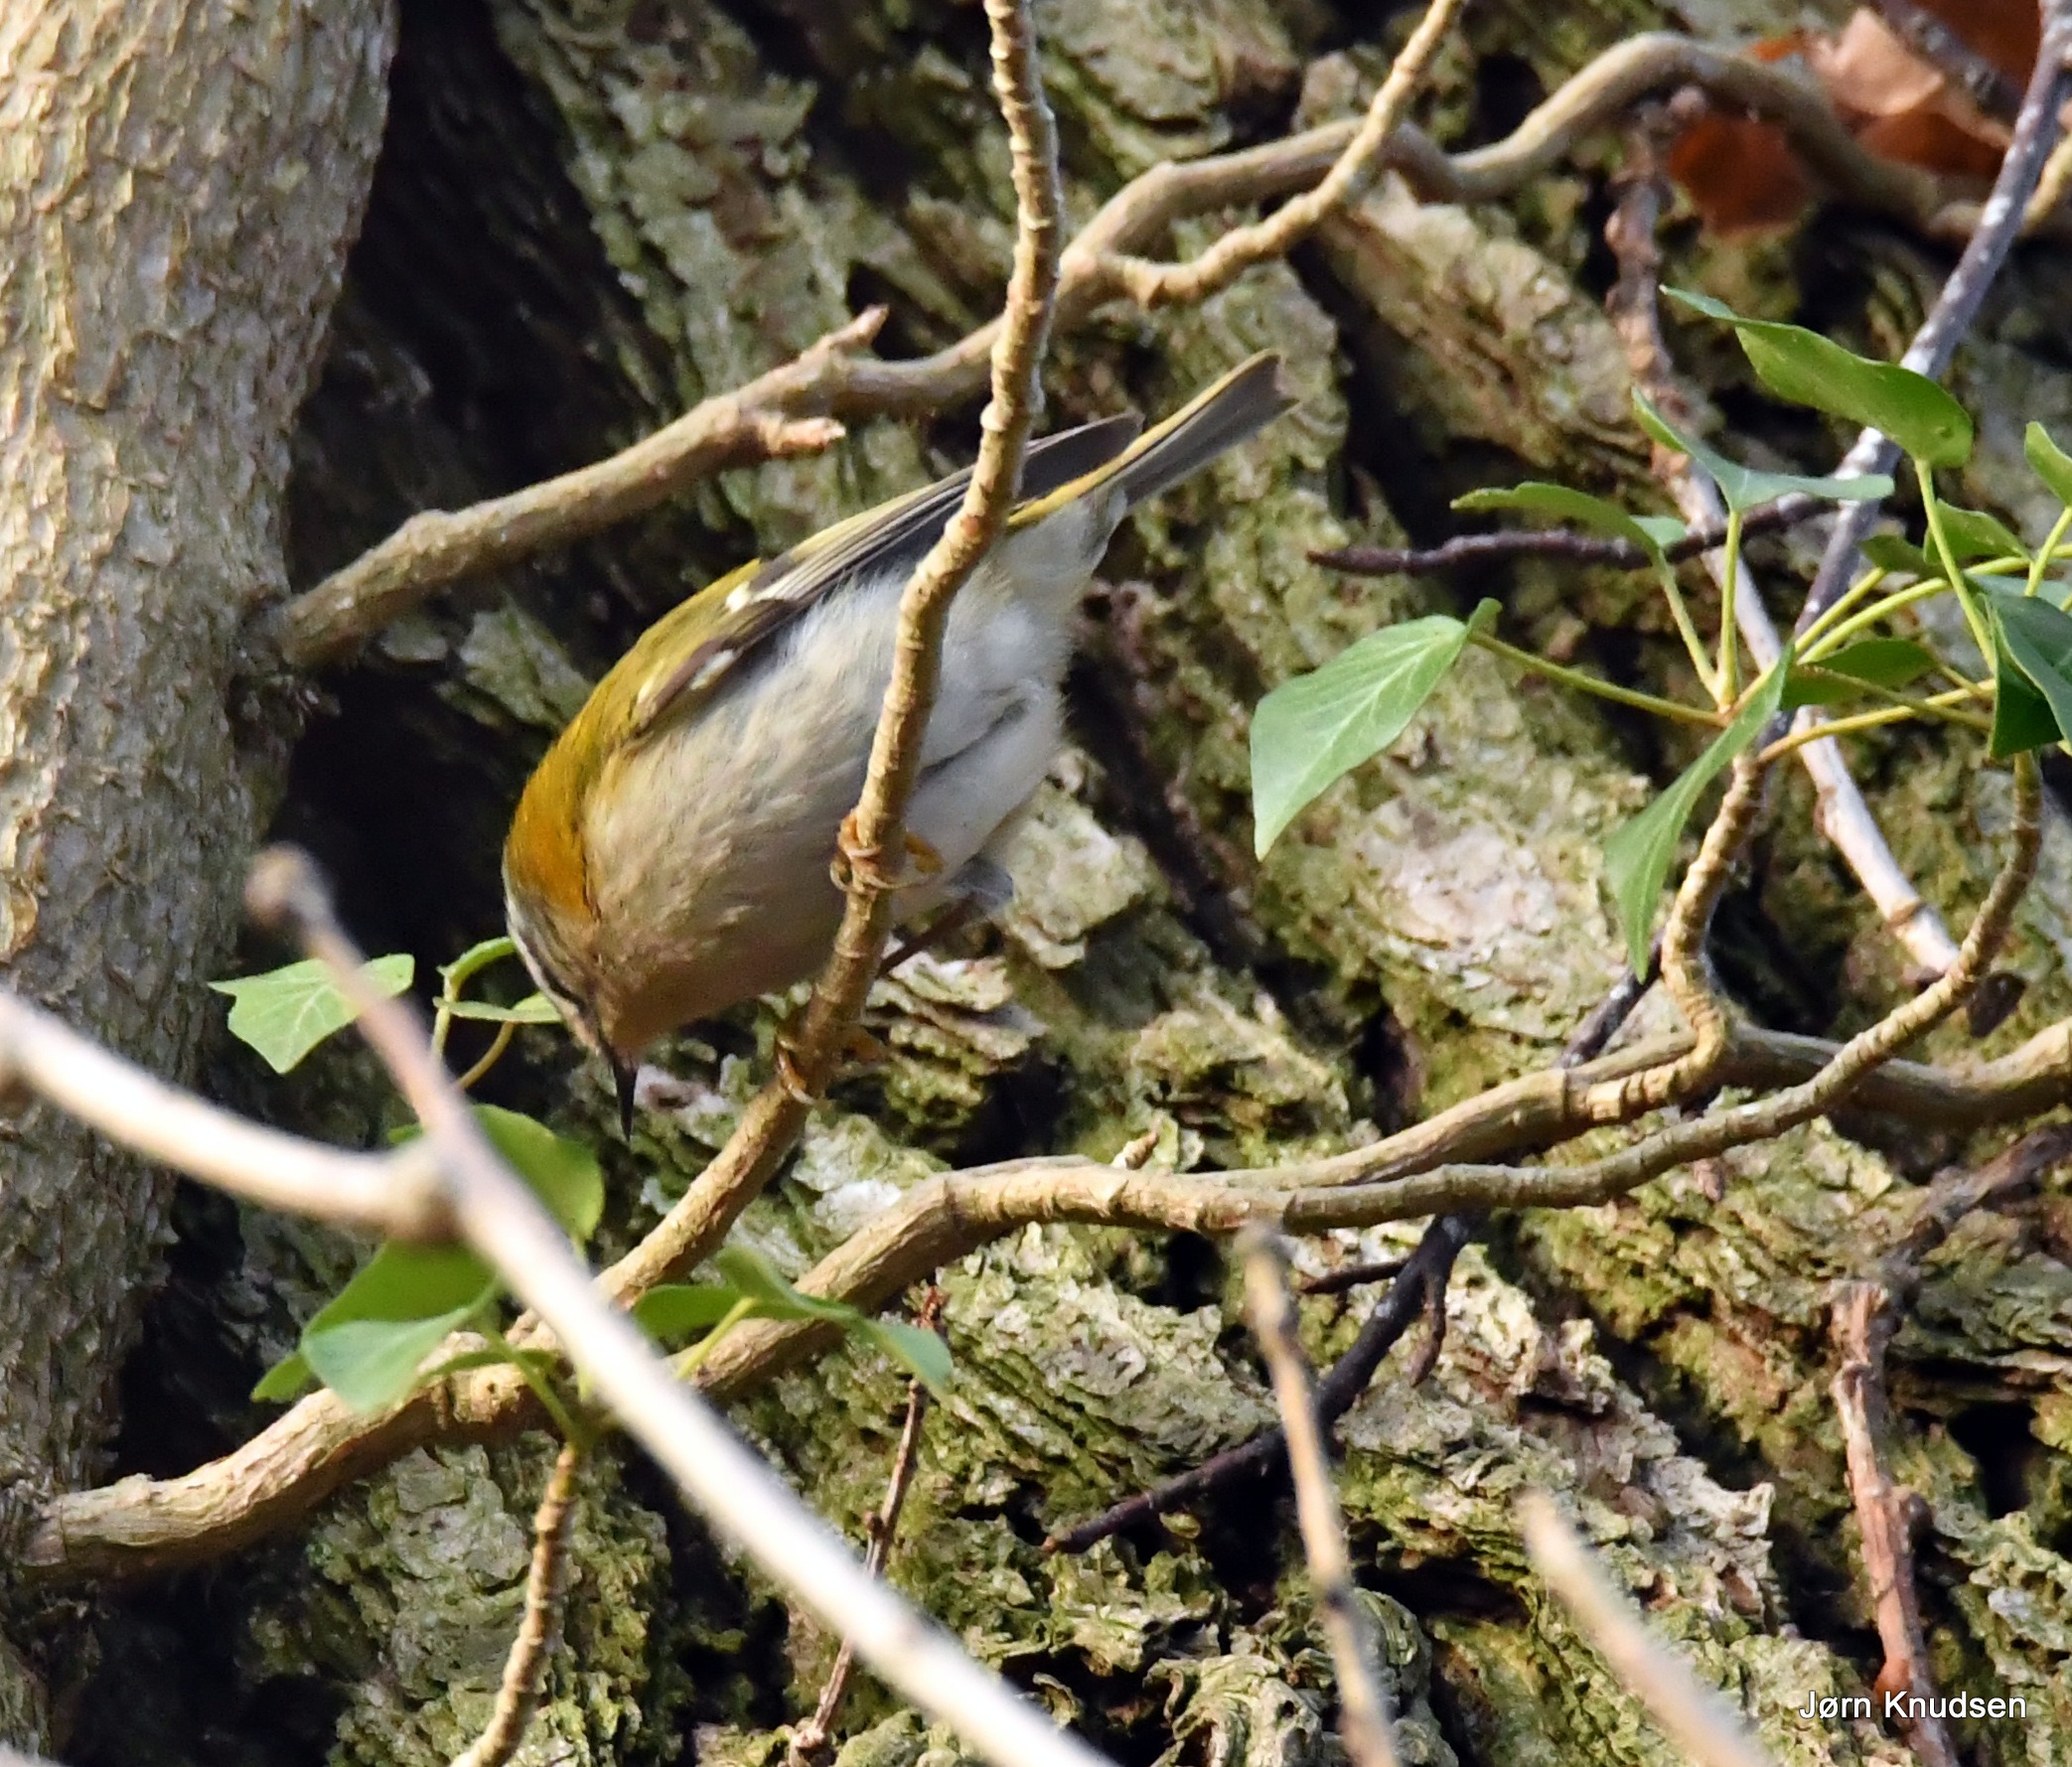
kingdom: Animalia
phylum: Chordata
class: Aves
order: Passeriformes
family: Regulidae
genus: Regulus
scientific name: Regulus ignicapilla
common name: Rødtoppet fuglekonge
